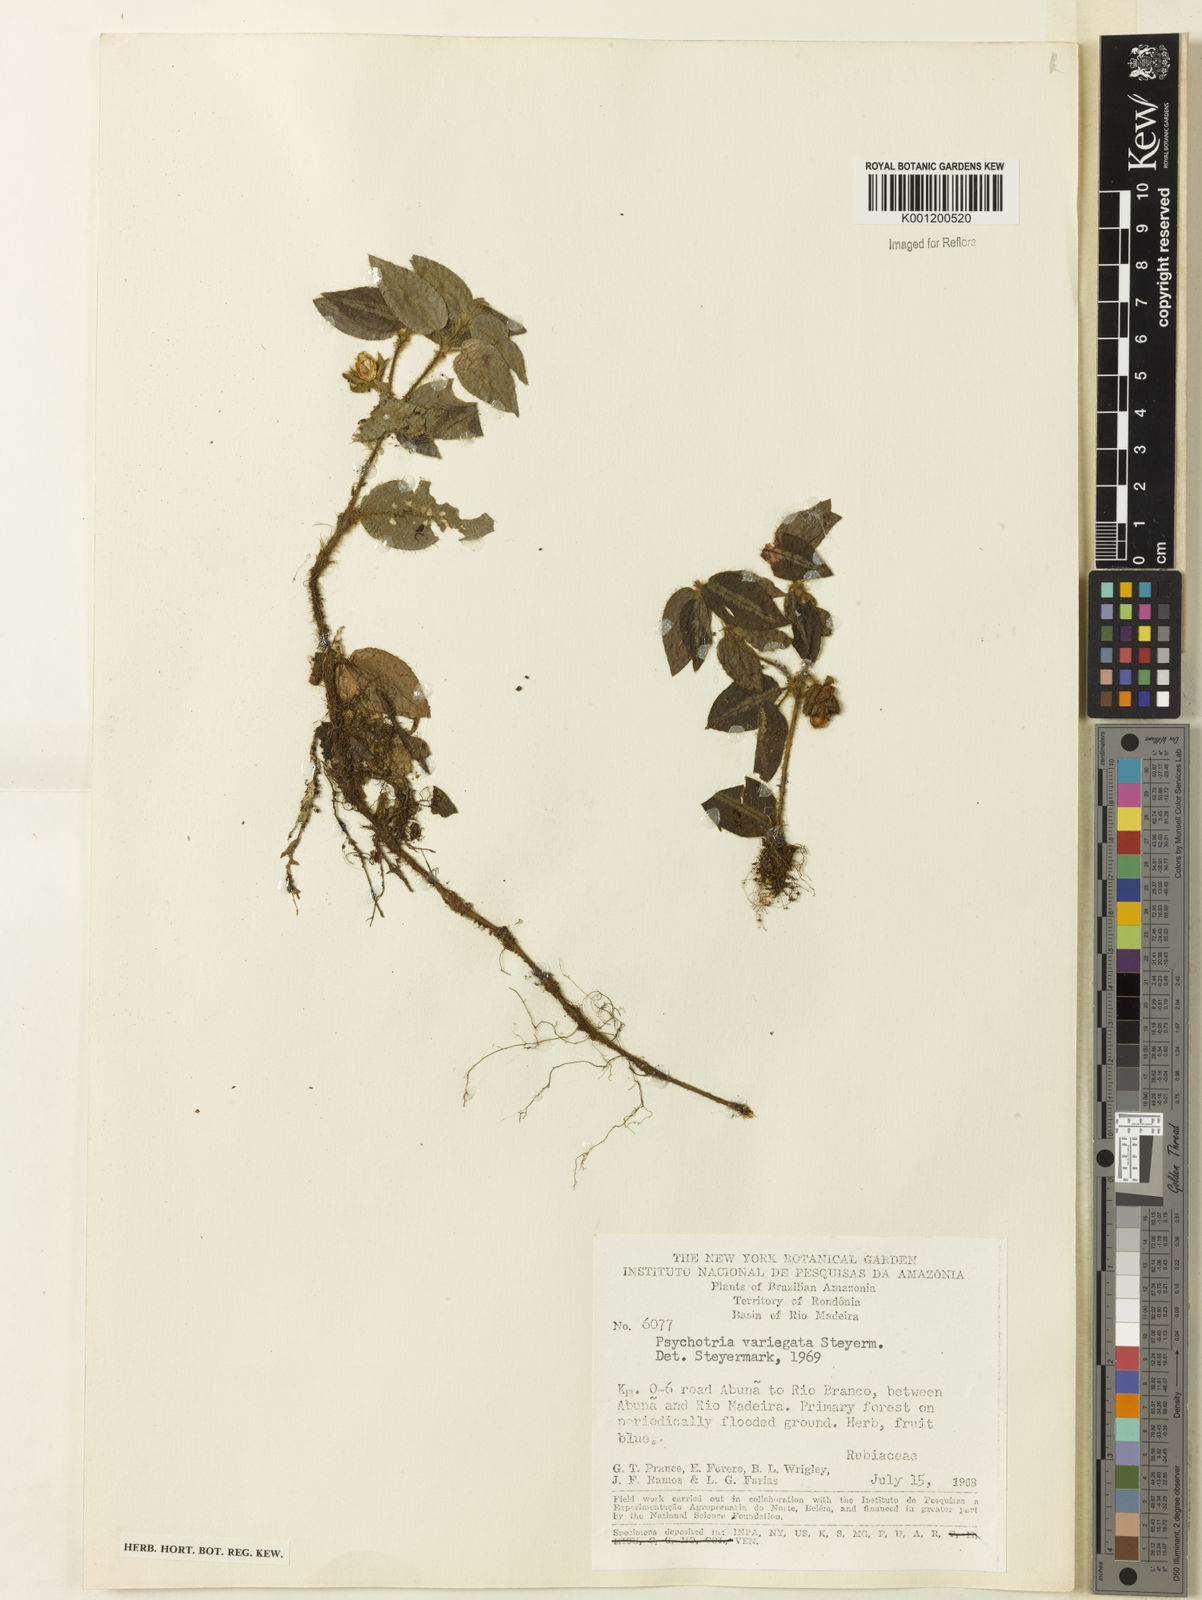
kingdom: Plantae
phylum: Tracheophyta
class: Magnoliopsida
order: Gentianales
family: Rubiaceae
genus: Palicourea
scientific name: Palicourea debilis
